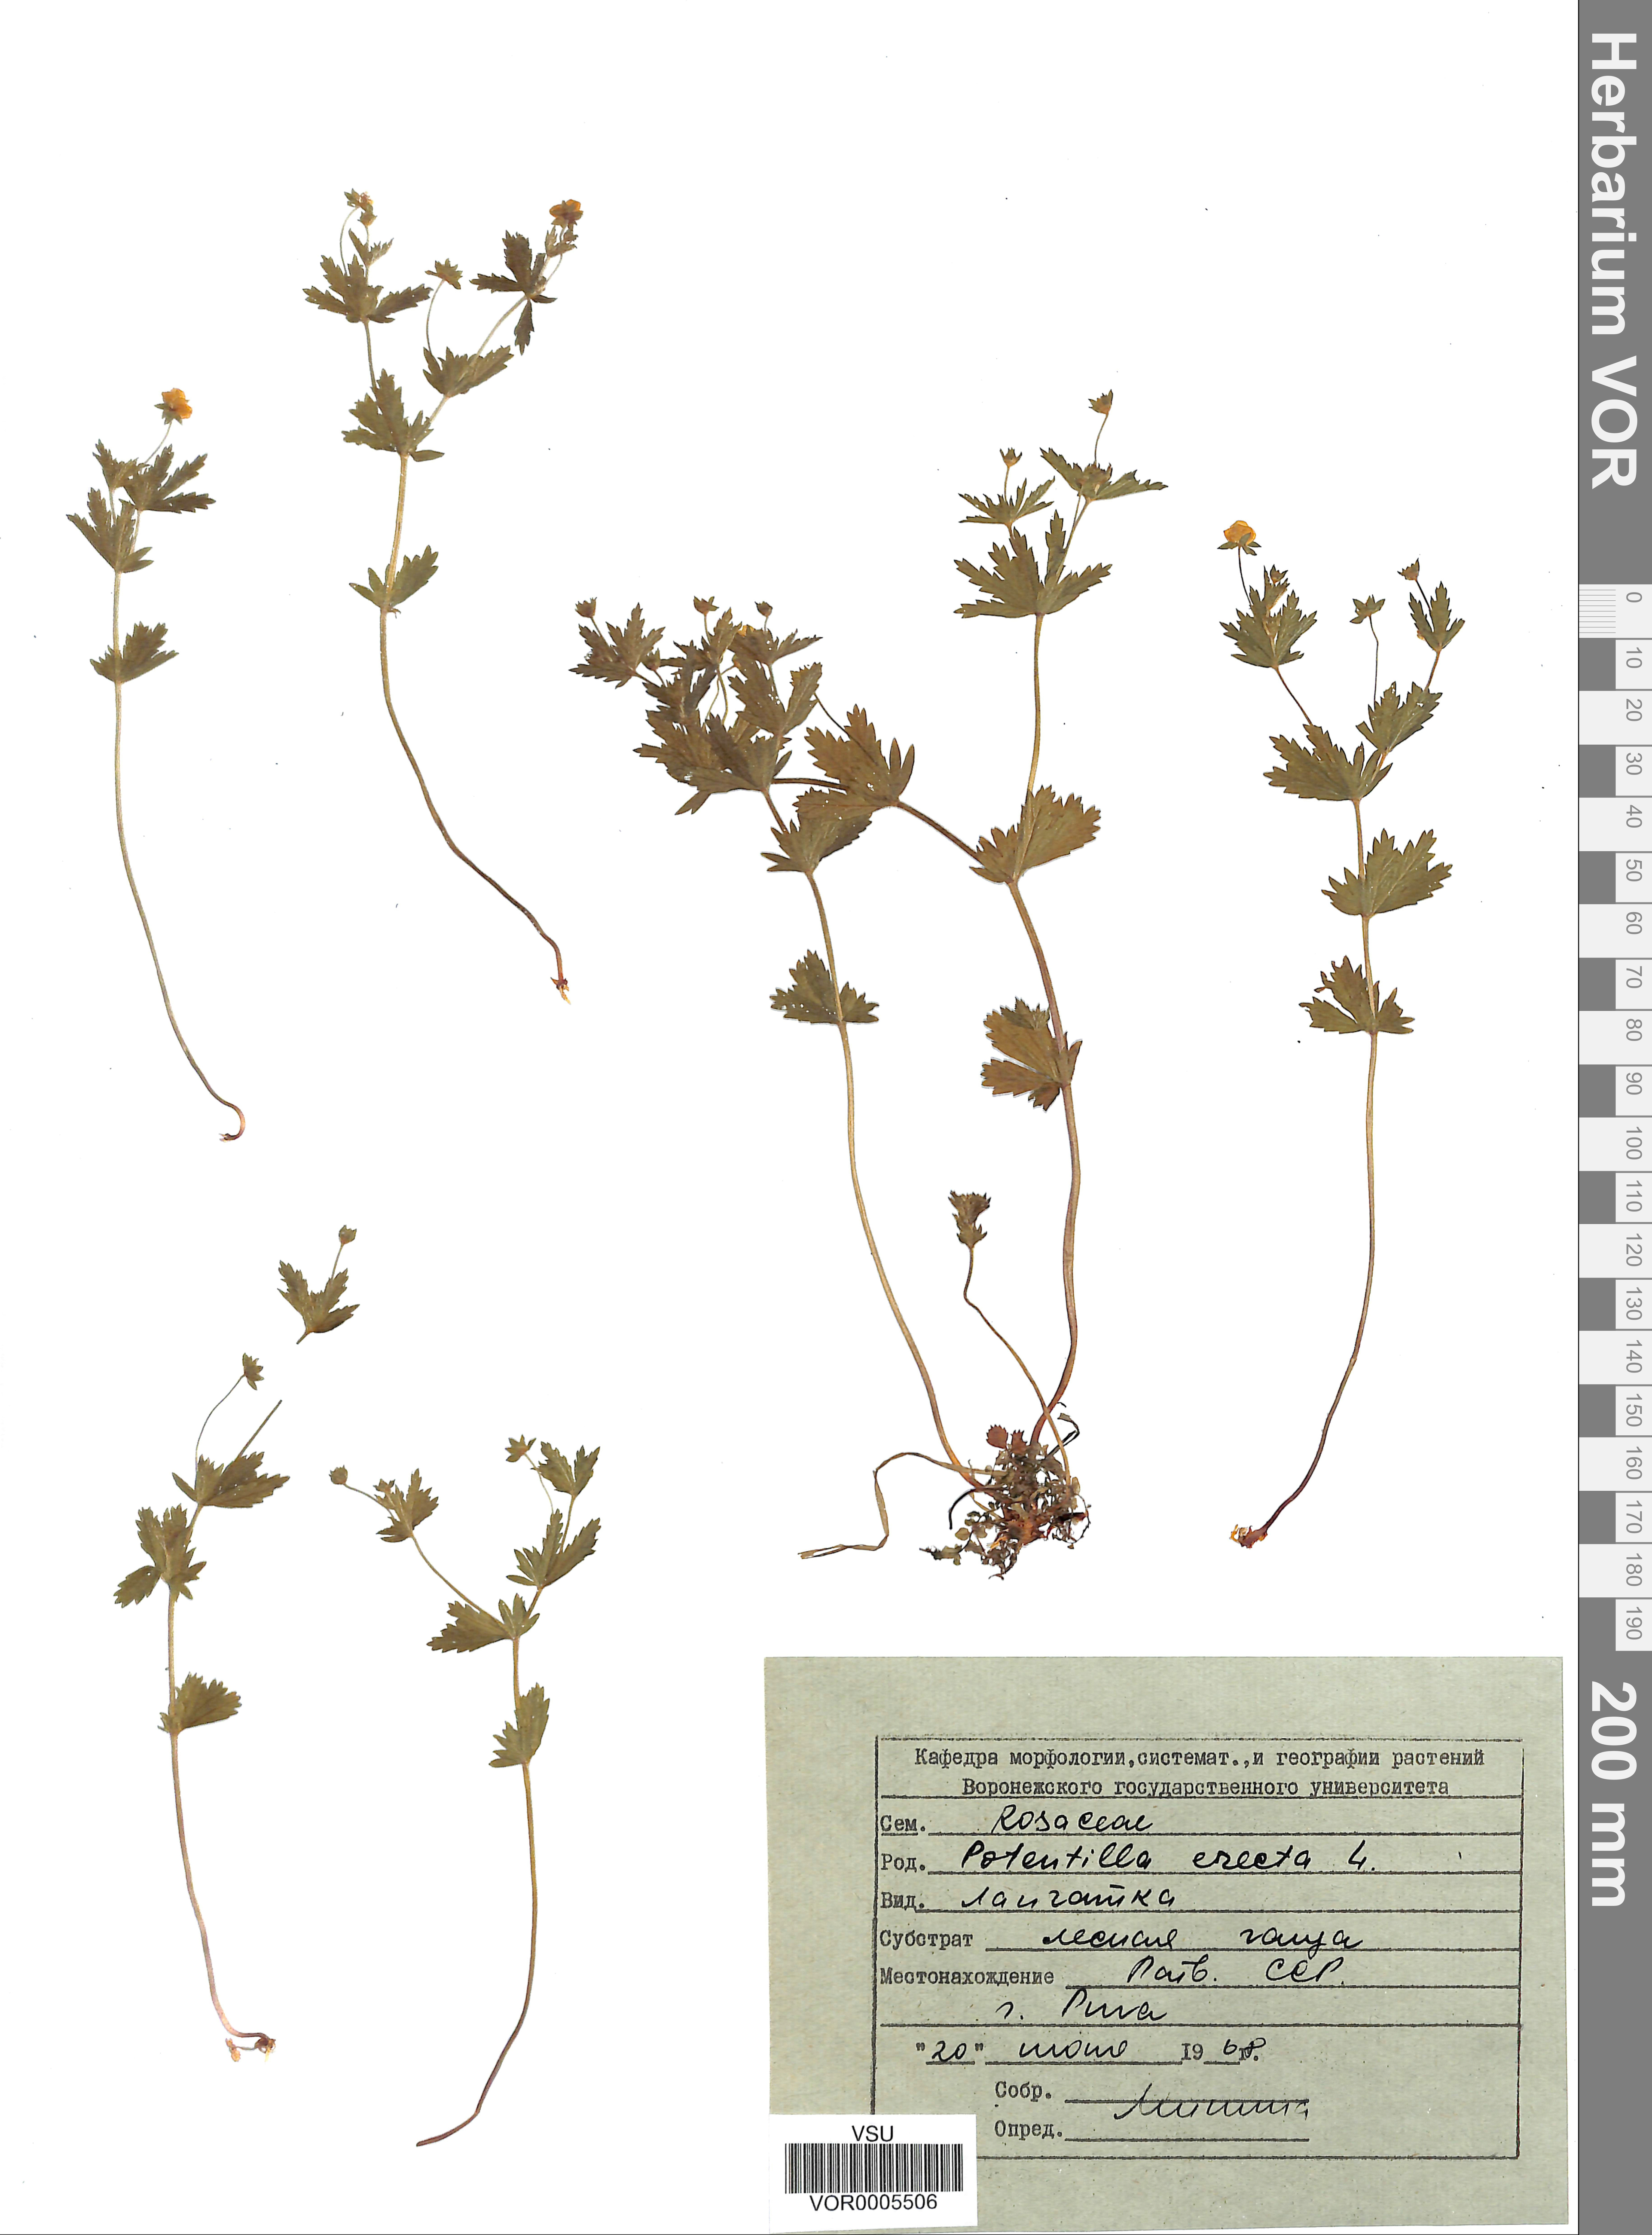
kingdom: Plantae
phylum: Tracheophyta
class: Magnoliopsida
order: Rosales
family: Rosaceae
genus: Potentilla
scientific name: Potentilla erecta
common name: Tormentil
